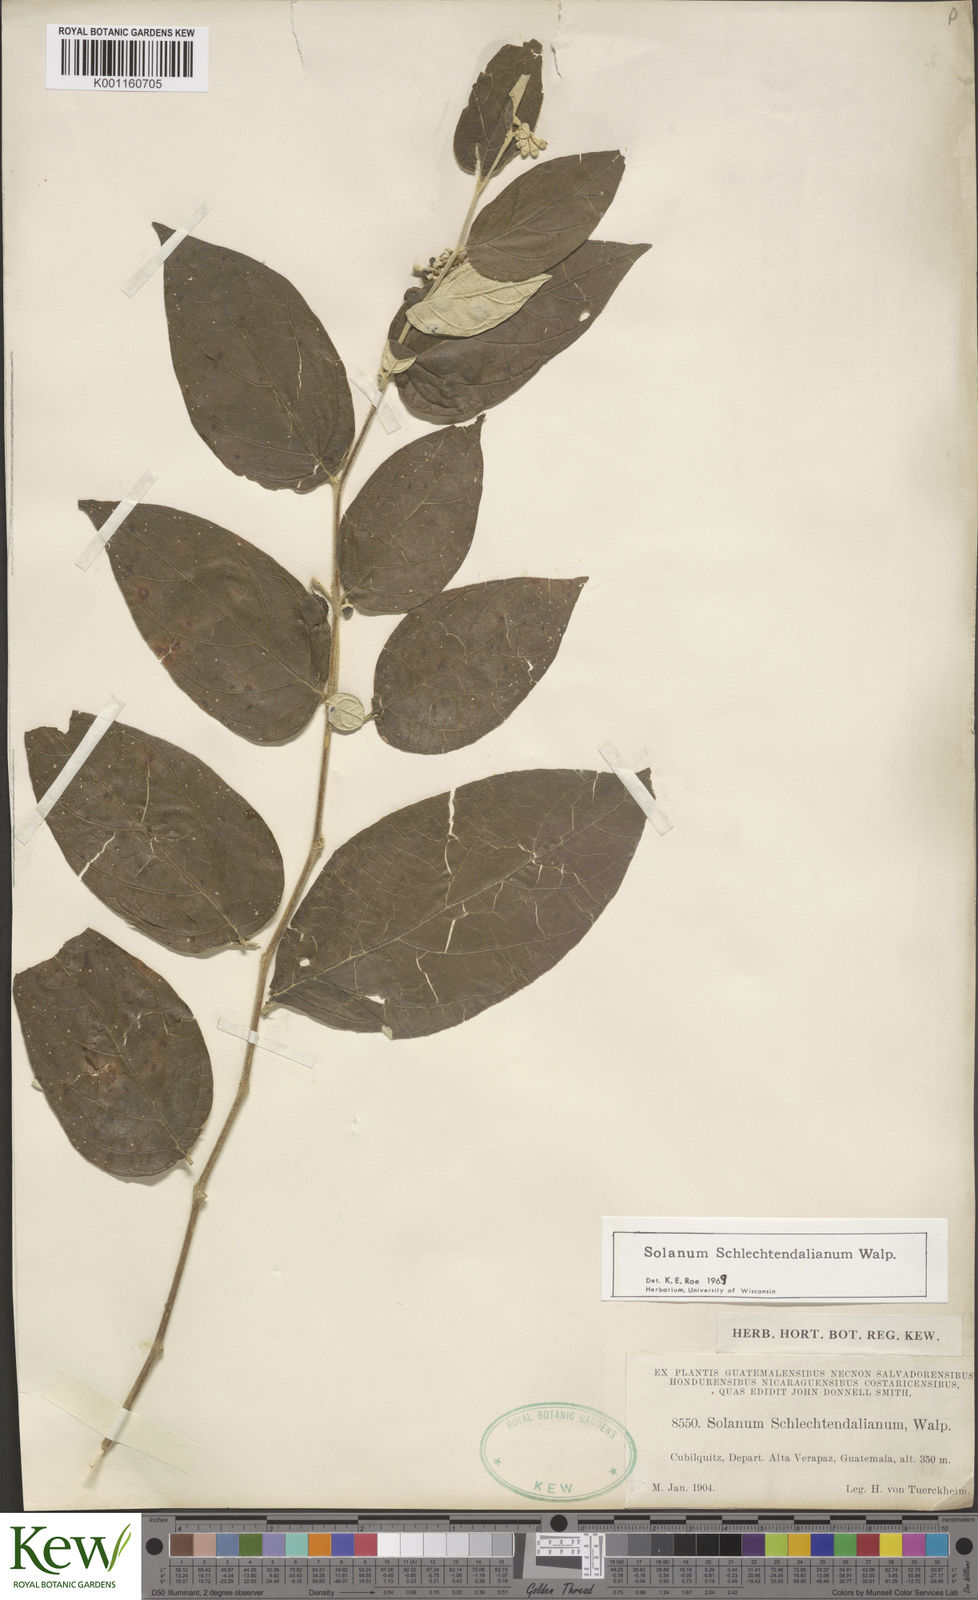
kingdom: Plantae
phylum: Tracheophyta
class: Magnoliopsida
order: Solanales
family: Solanaceae
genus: Solanum
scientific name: Solanum schlechtendalianum
